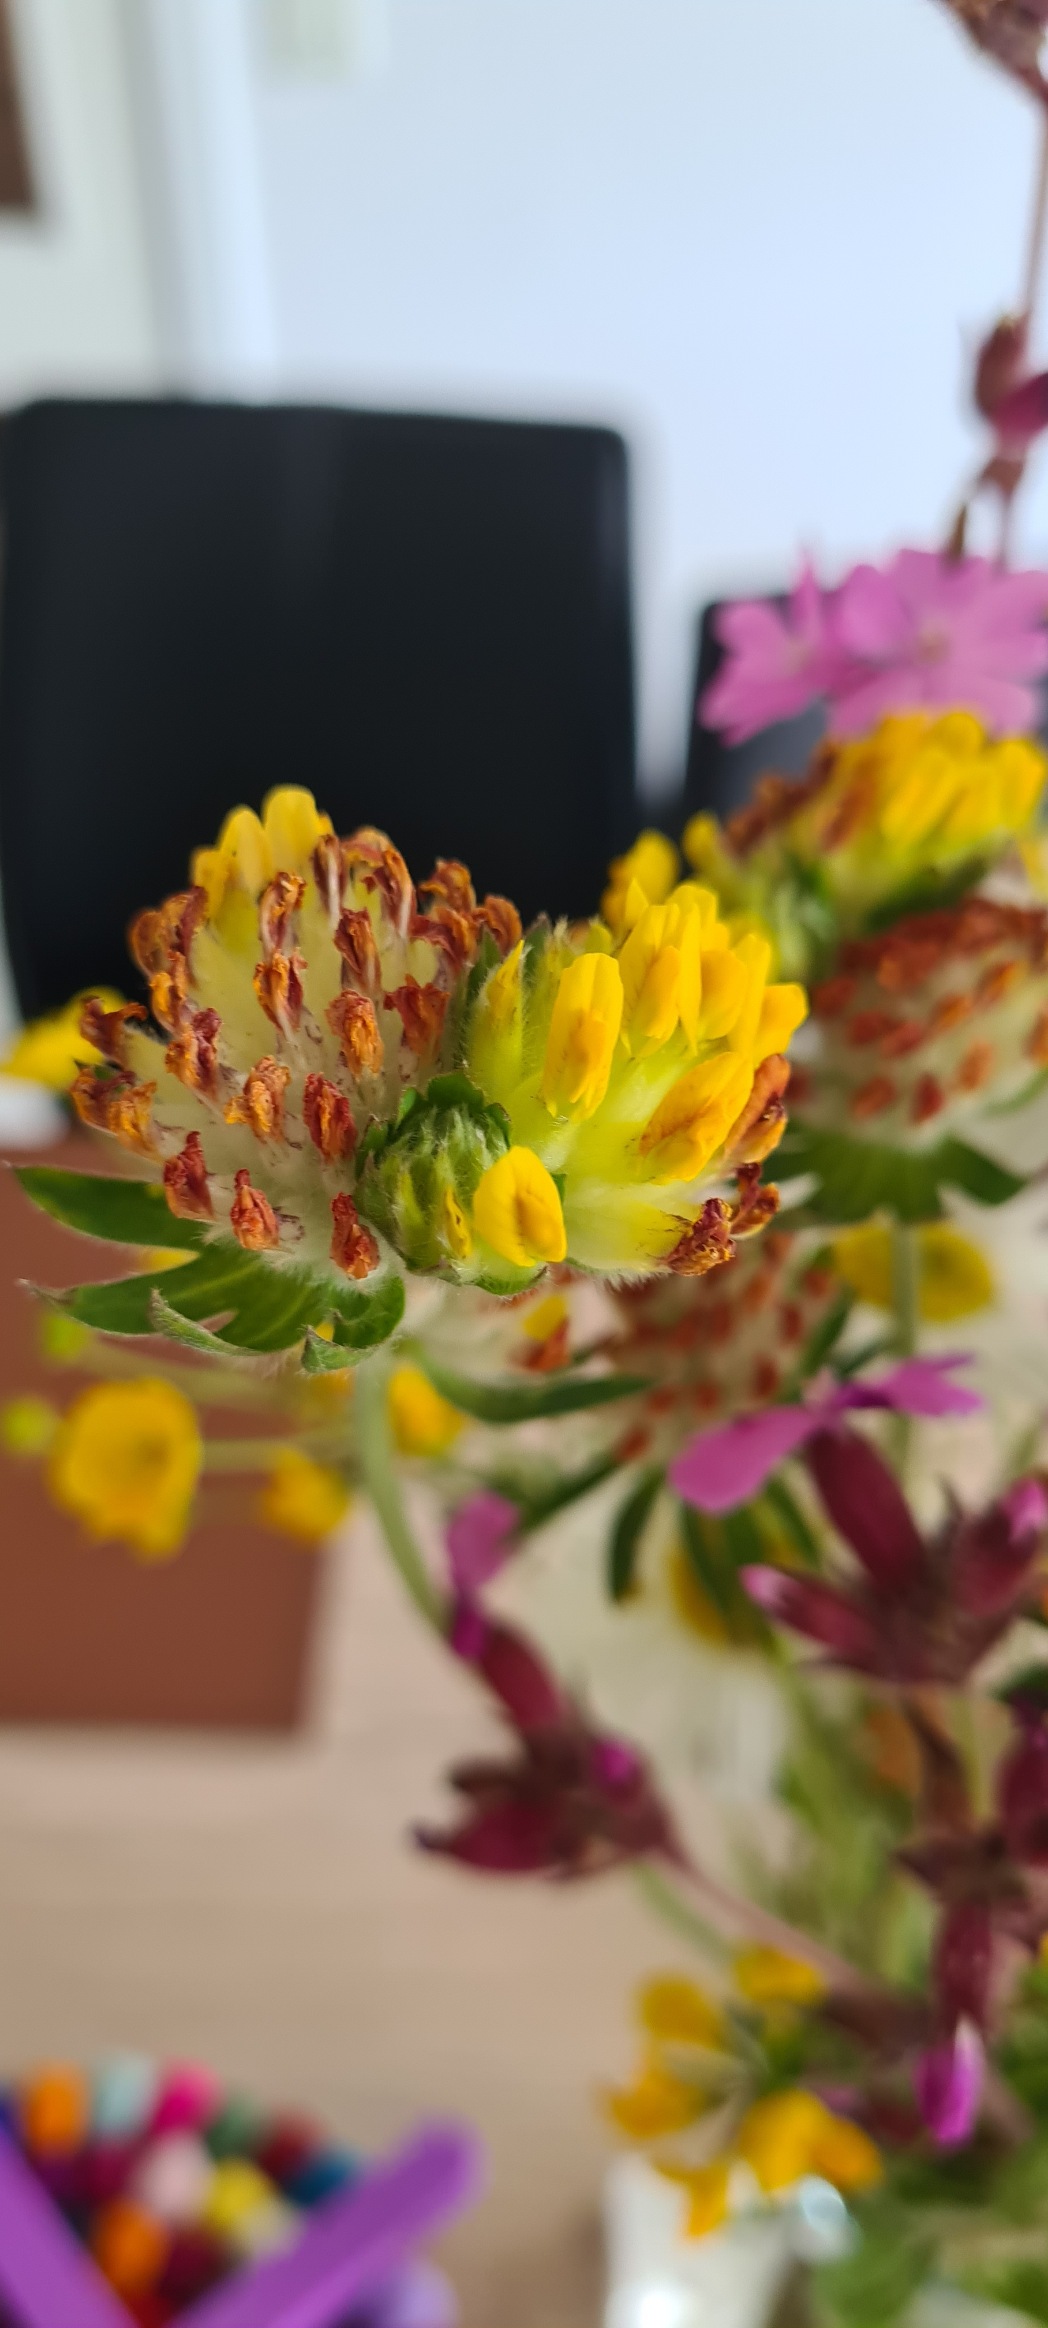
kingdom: Plantae
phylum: Tracheophyta
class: Magnoliopsida
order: Fabales
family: Fabaceae
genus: Anthyllis
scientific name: Anthyllis vulneraria
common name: Rundbælg
